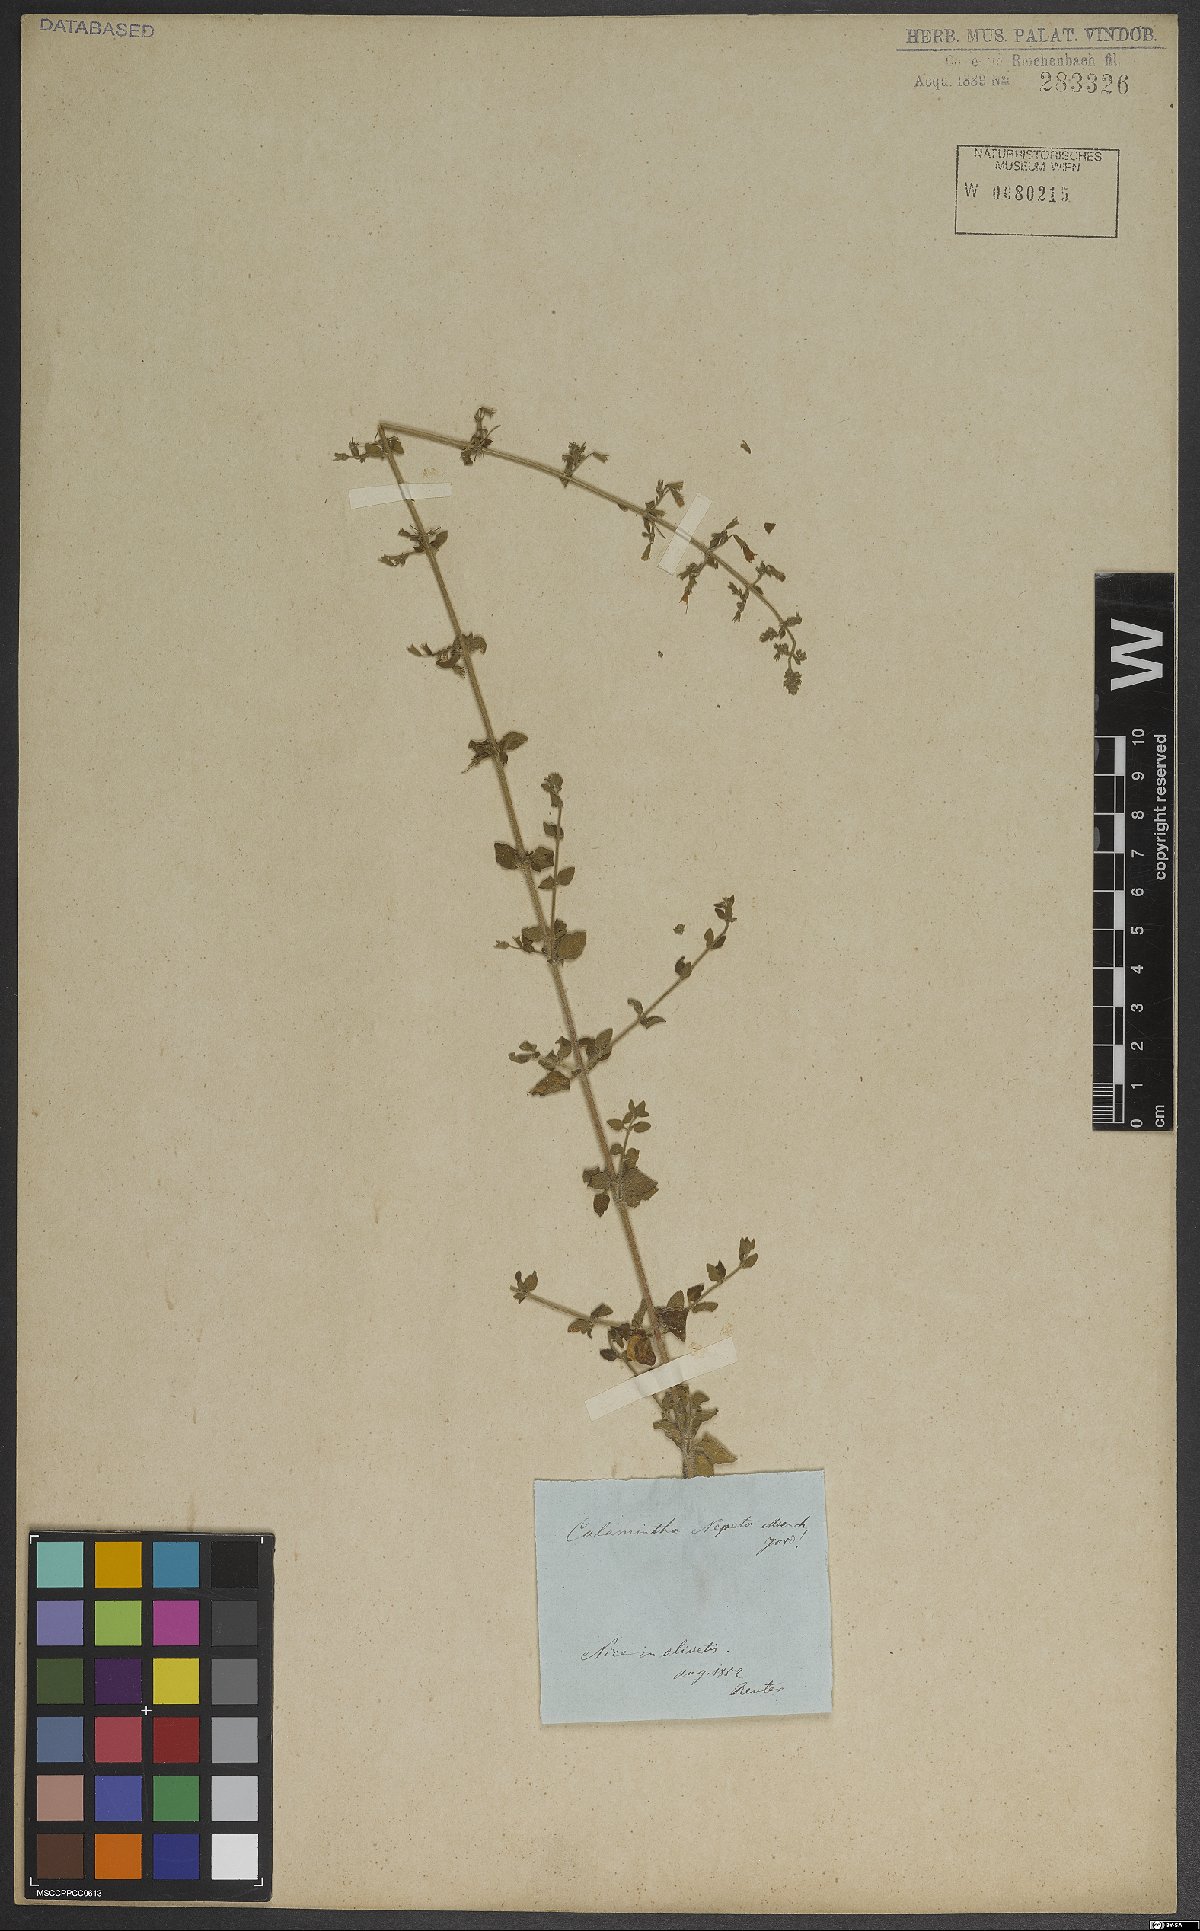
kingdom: Plantae
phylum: Tracheophyta
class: Magnoliopsida
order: Lamiales
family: Lamiaceae
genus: Clinopodium
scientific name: Clinopodium nepeta
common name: Lesser calamint
